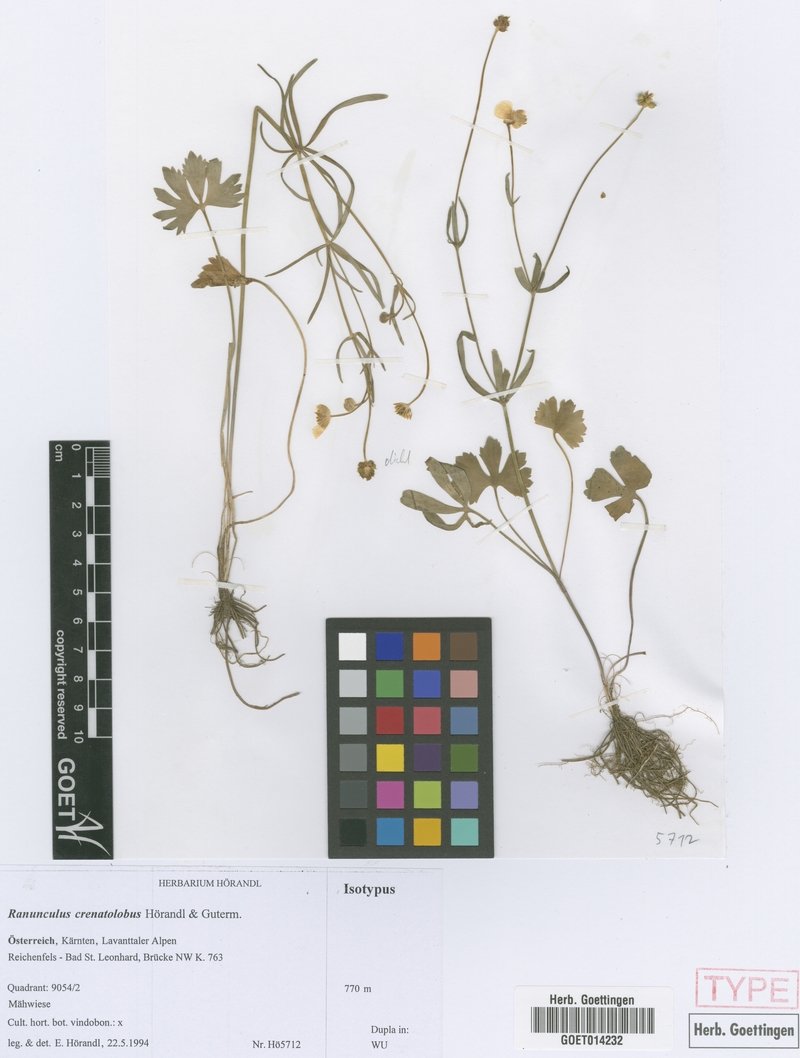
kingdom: Plantae
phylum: Tracheophyta
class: Magnoliopsida
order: Ranunculales
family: Ranunculaceae
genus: Ranunculus
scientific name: Ranunculus crenatolobus
